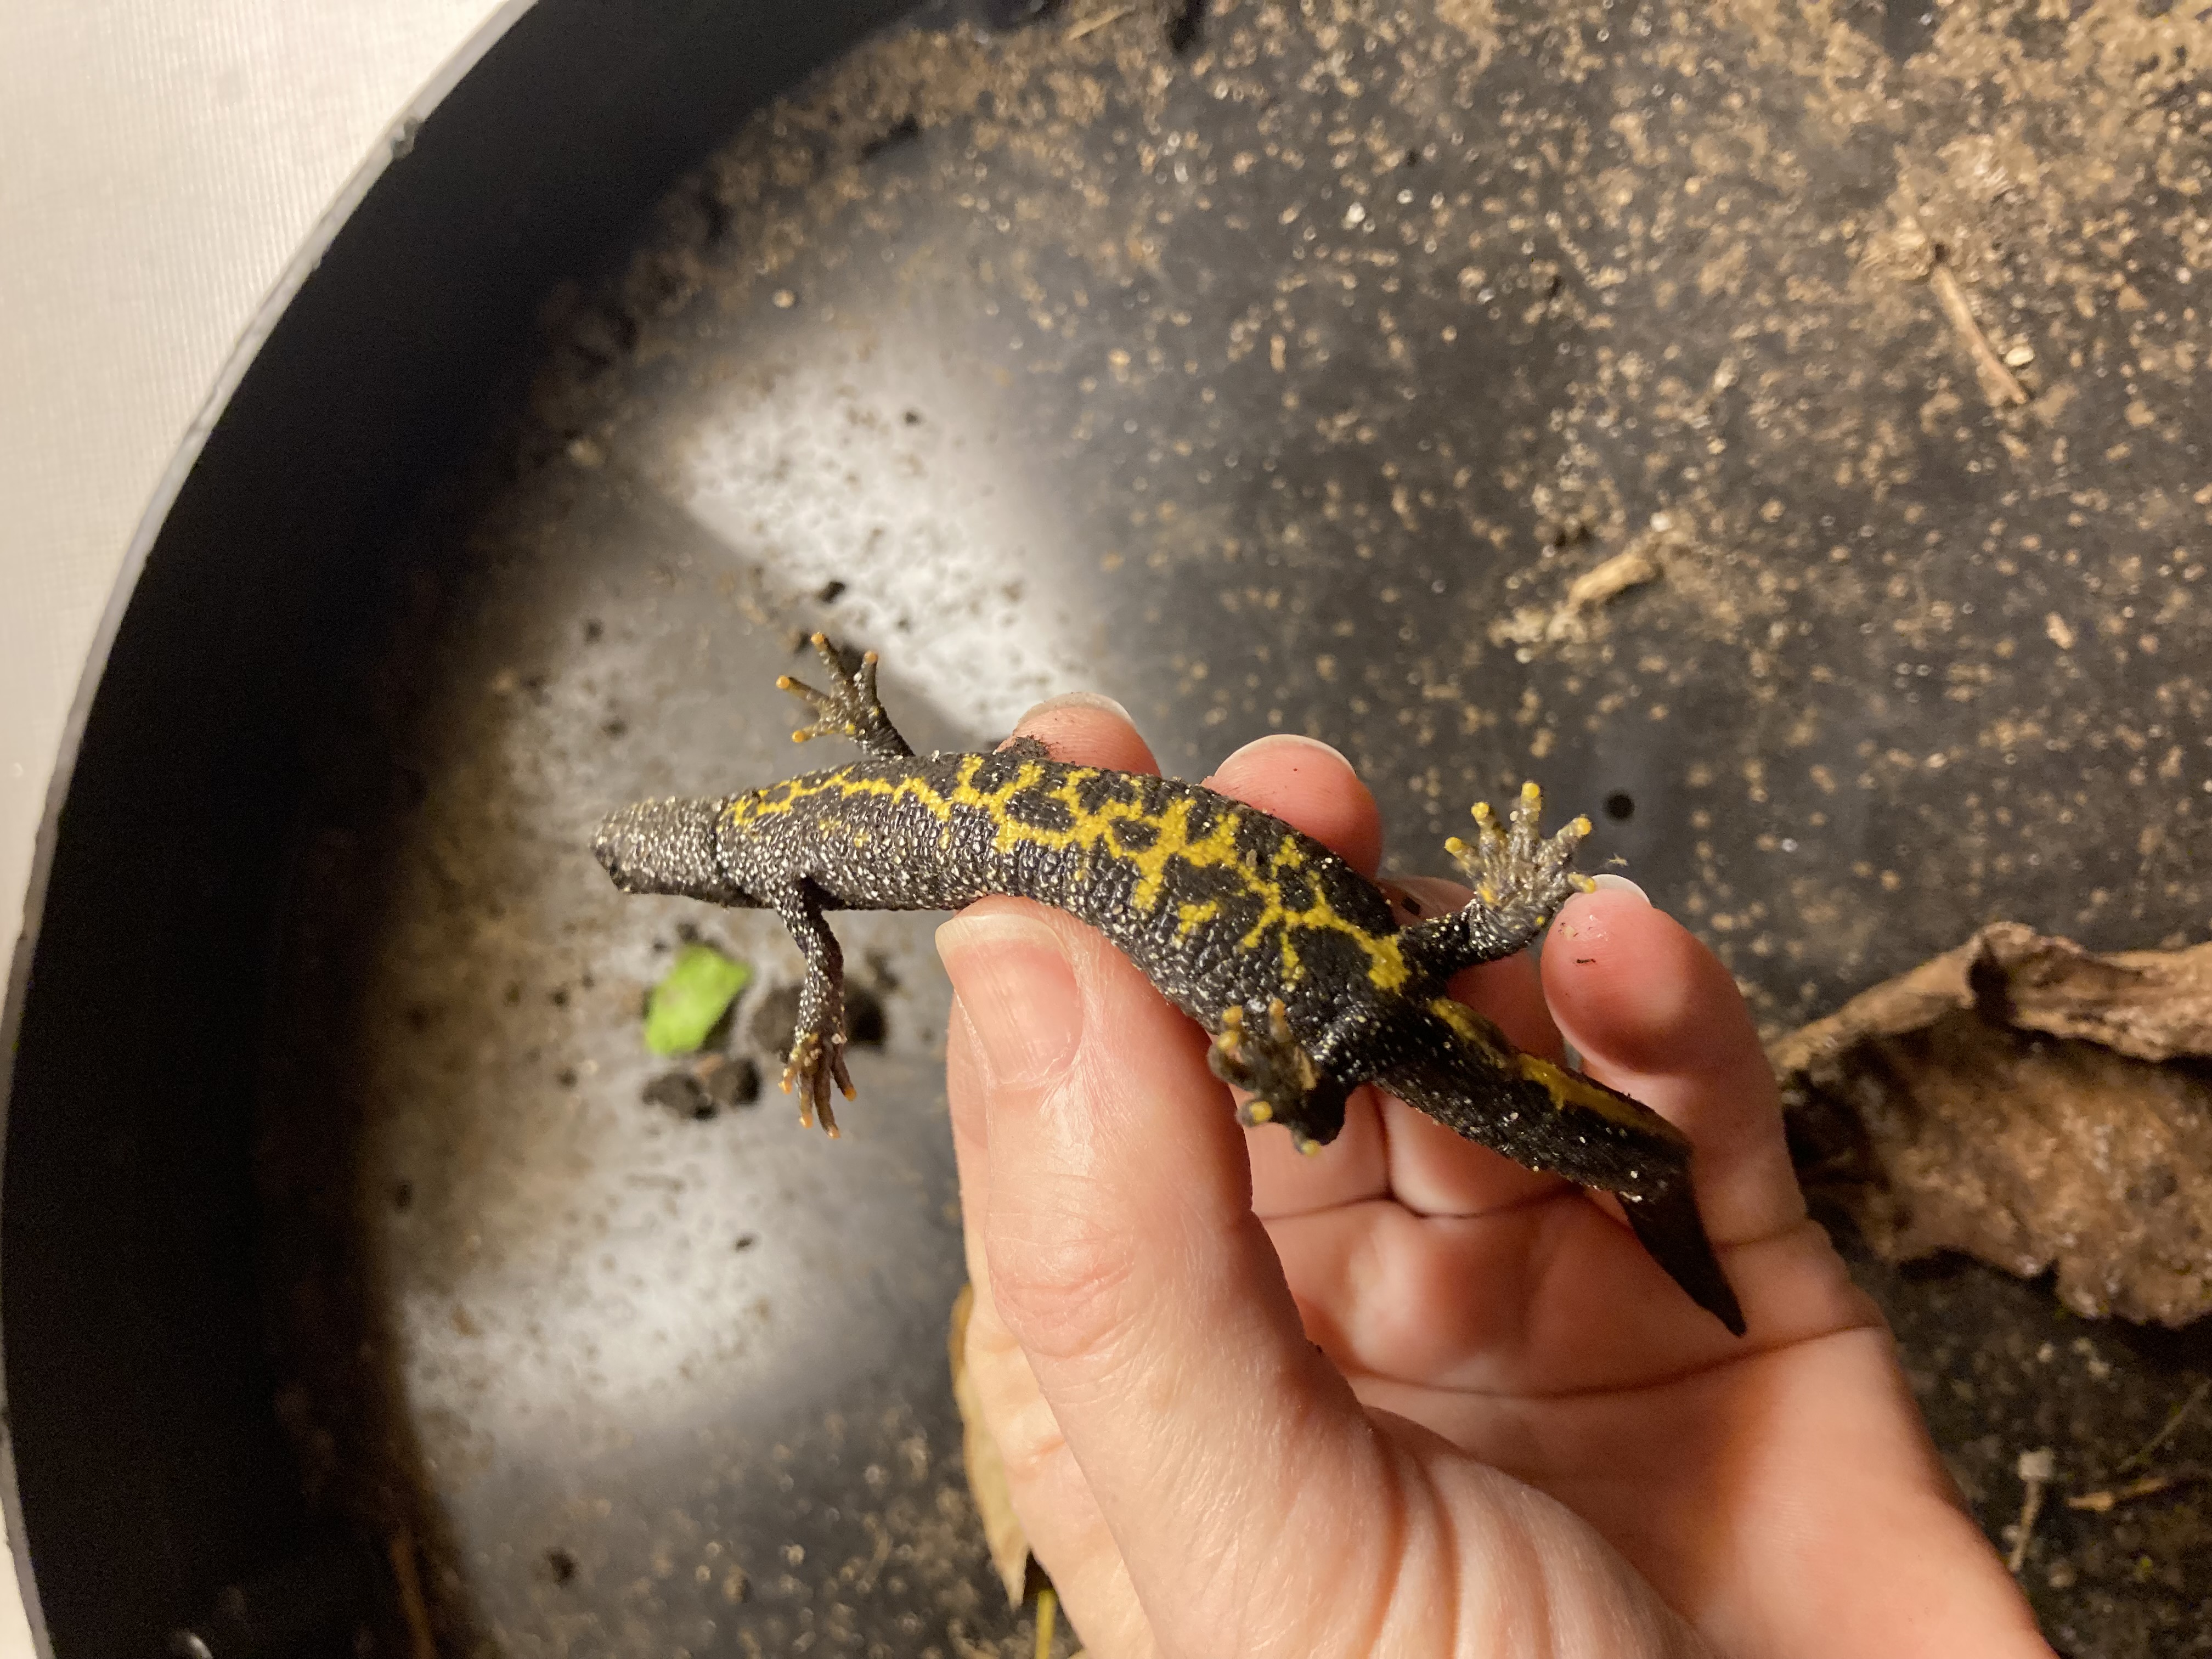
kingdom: Animalia
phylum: Chordata
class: Amphibia
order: Caudata
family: Salamandridae
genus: Triturus
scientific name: Triturus cristatus
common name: Stor vandsalamander
